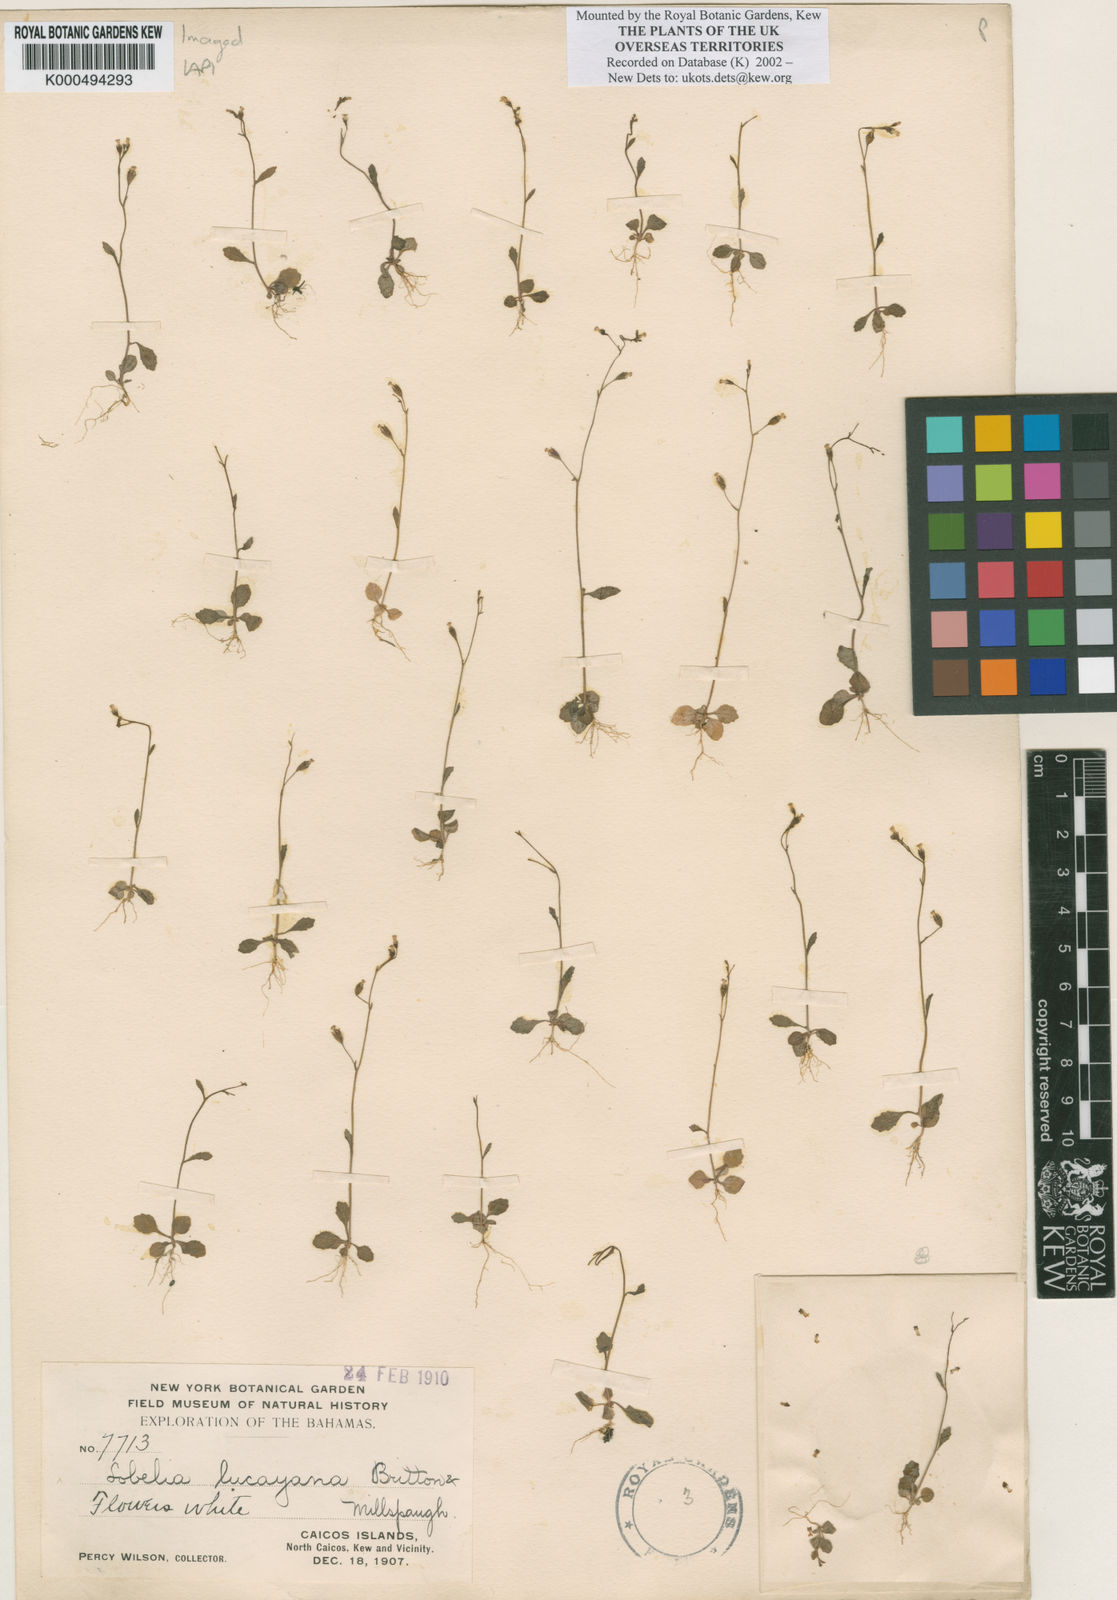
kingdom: Plantae
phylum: Tracheophyta
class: Magnoliopsida
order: Asterales
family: Campanulaceae
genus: Lobelia
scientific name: Lobelia lucayana
